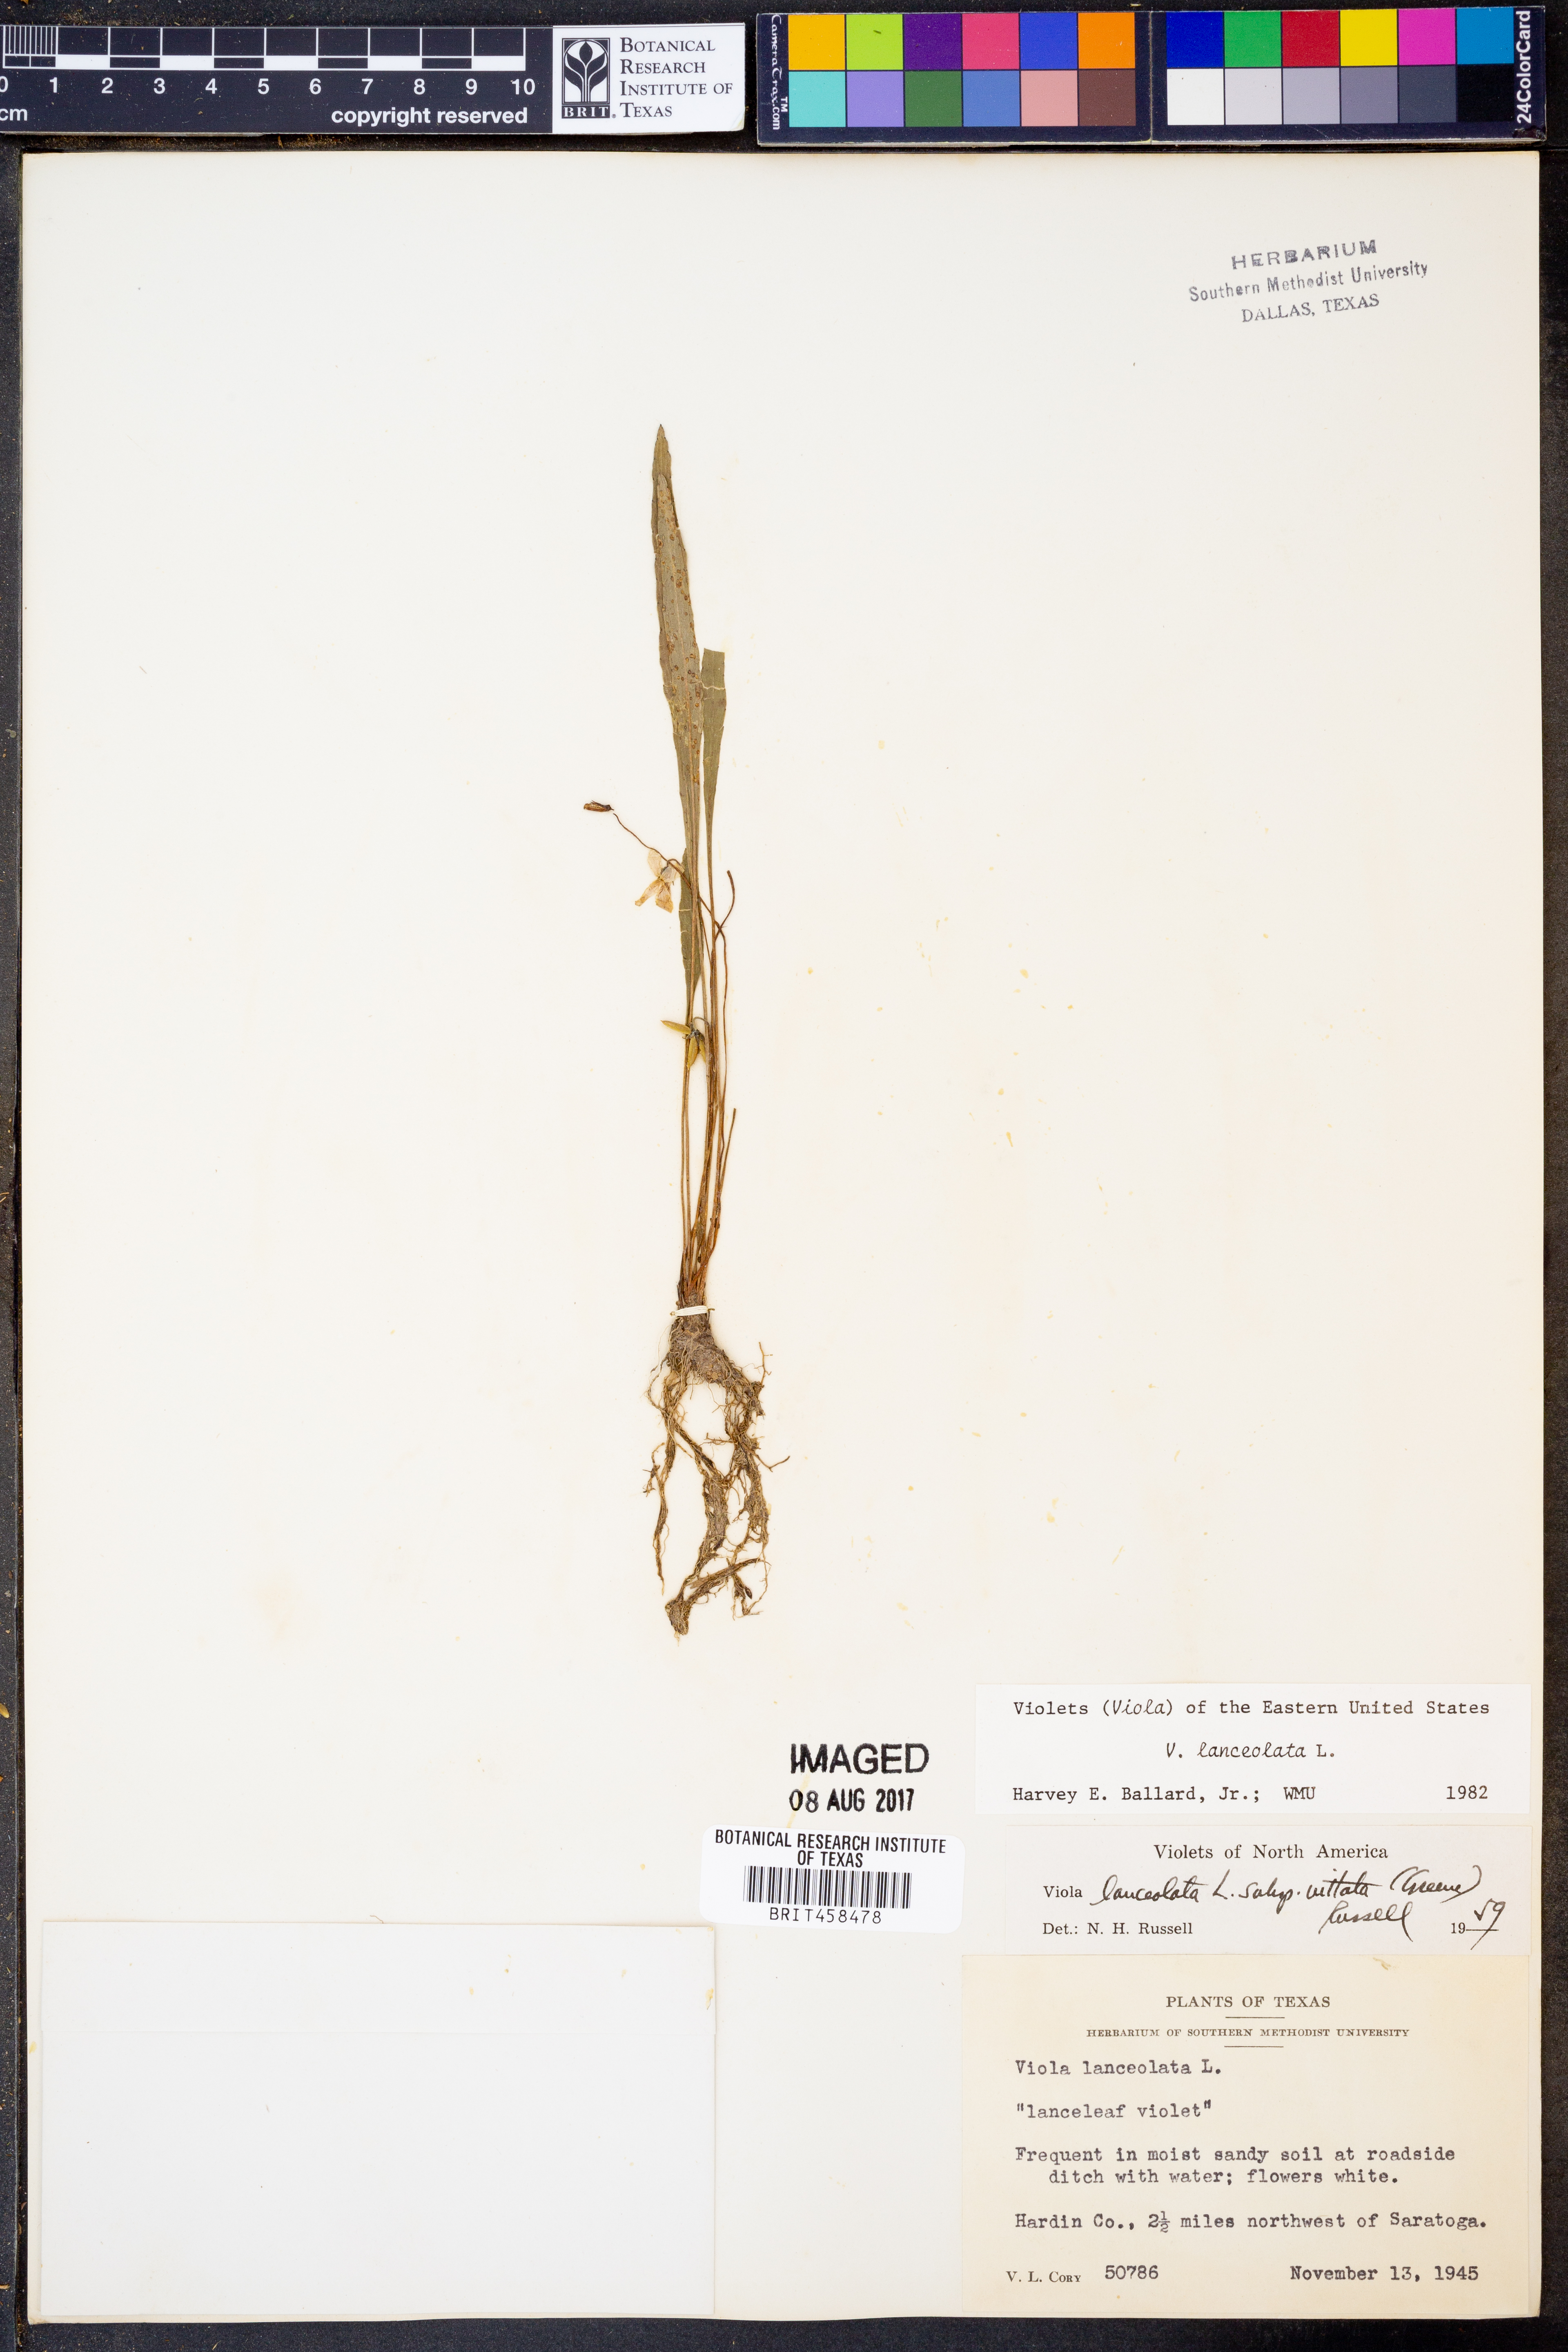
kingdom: Plantae
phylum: Tracheophyta
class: Magnoliopsida
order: Malpighiales
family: Violaceae
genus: Viola
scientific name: Viola lanceolata
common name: Bog white violet
